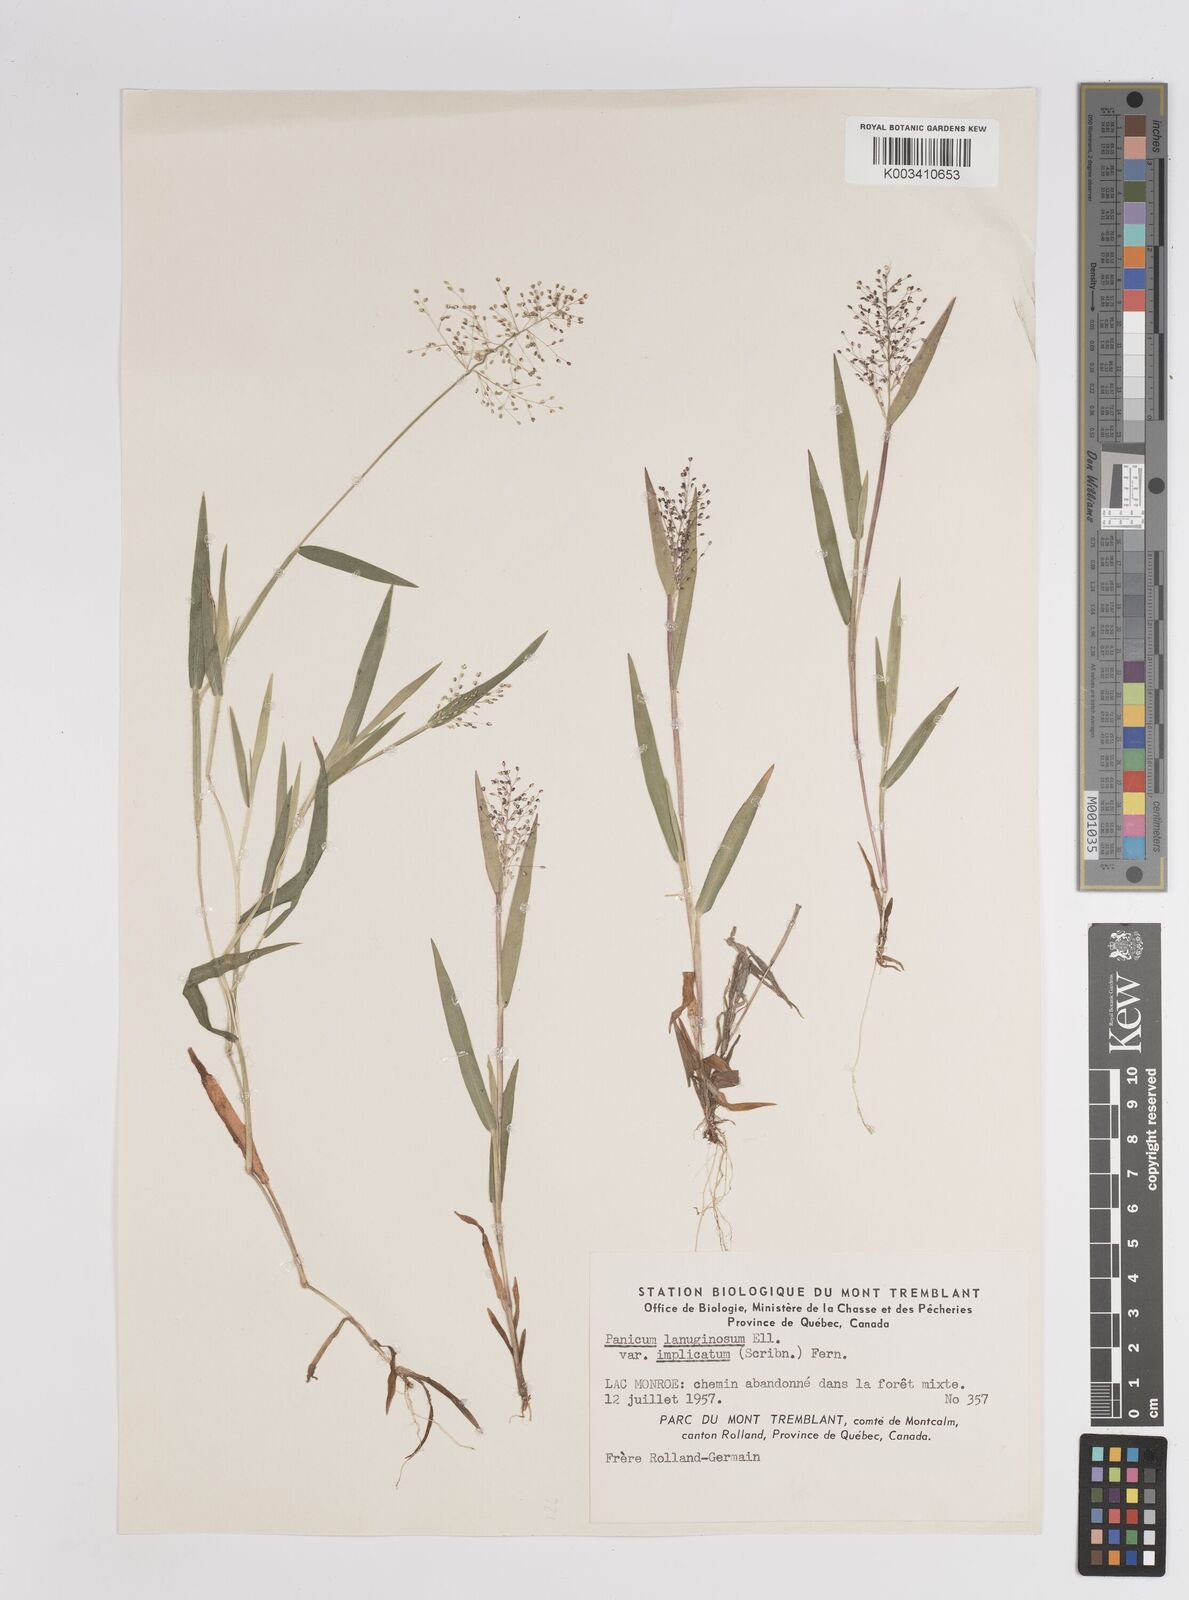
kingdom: Plantae
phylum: Tracheophyta
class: Liliopsida
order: Poales
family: Poaceae
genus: Dichanthelium
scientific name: Dichanthelium implicatum
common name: Slender-stemmed panicgrass
